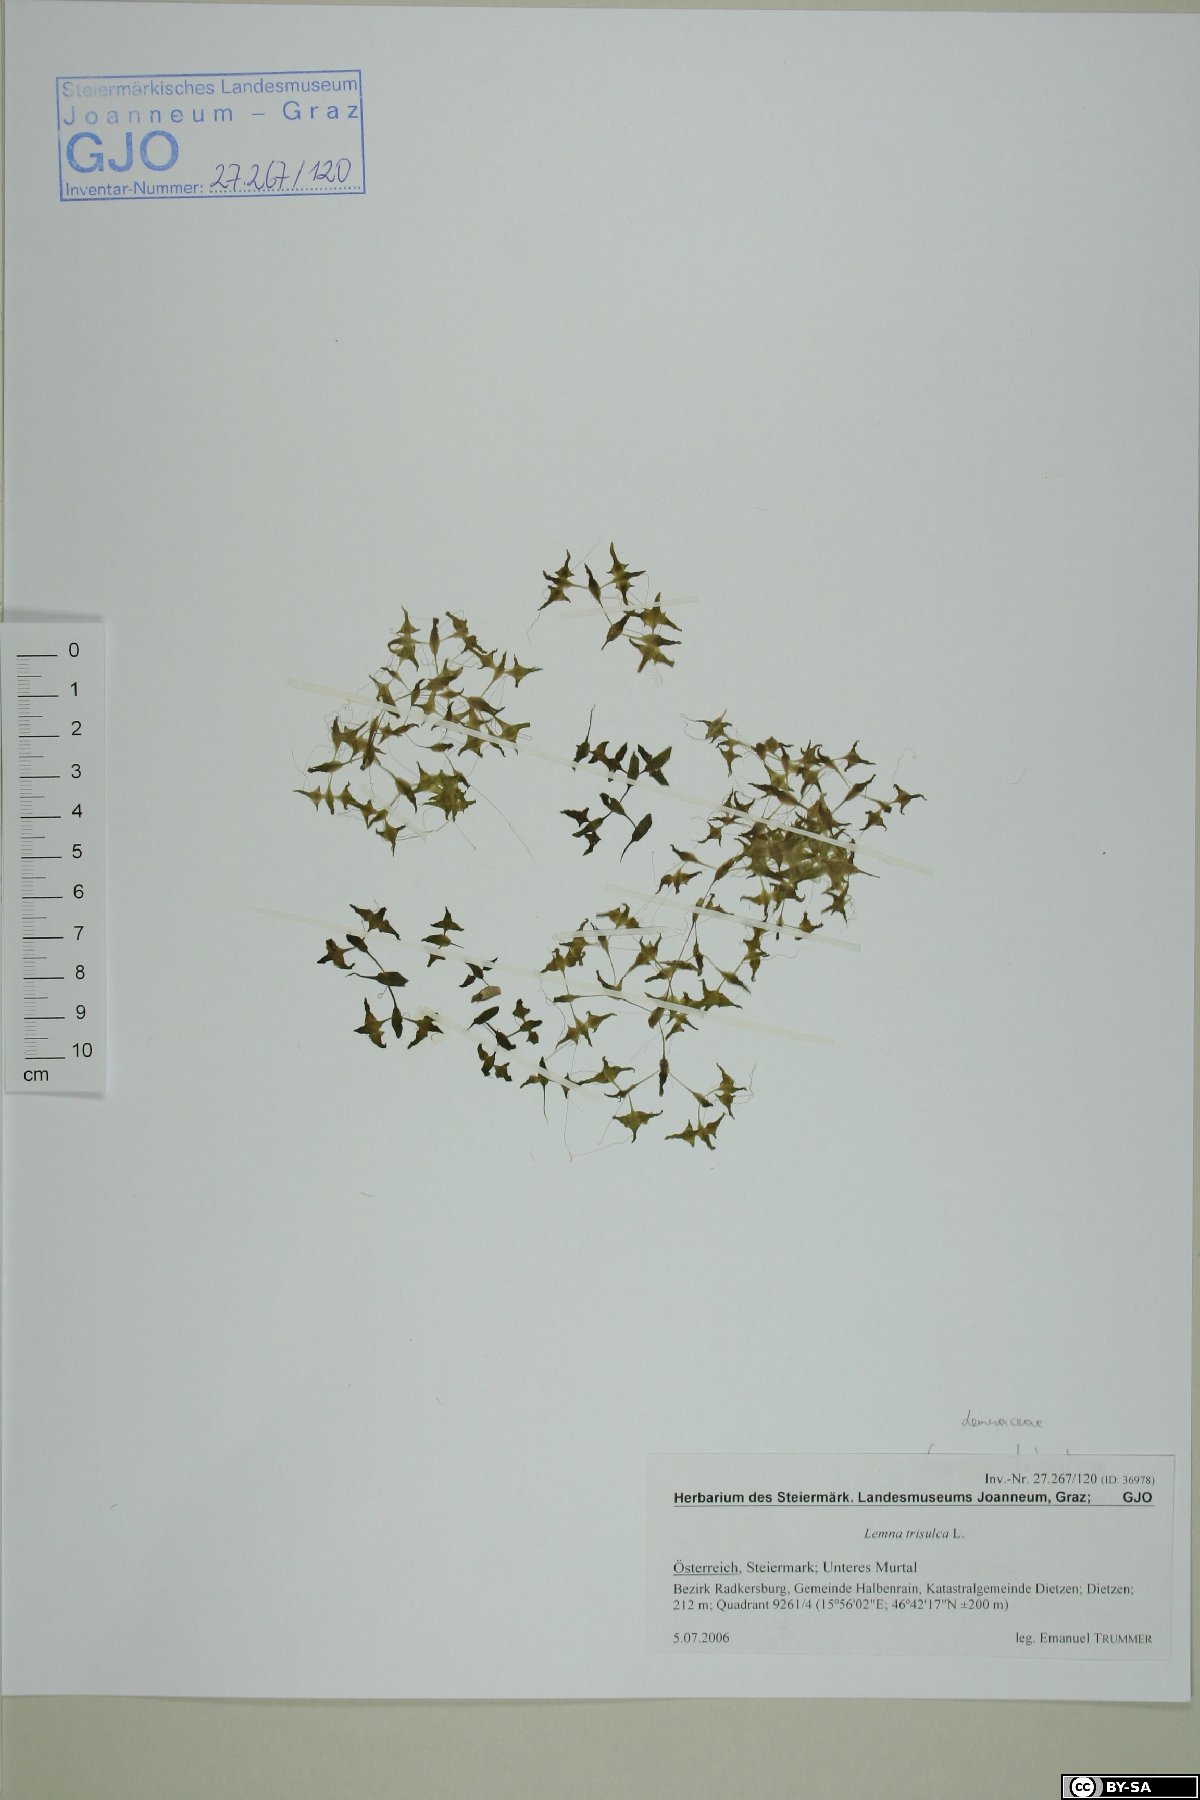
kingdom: Plantae
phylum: Tracheophyta
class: Liliopsida
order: Alismatales
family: Araceae
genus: Lemna
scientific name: Lemna trisulca
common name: Ivy-leaved duckweed
